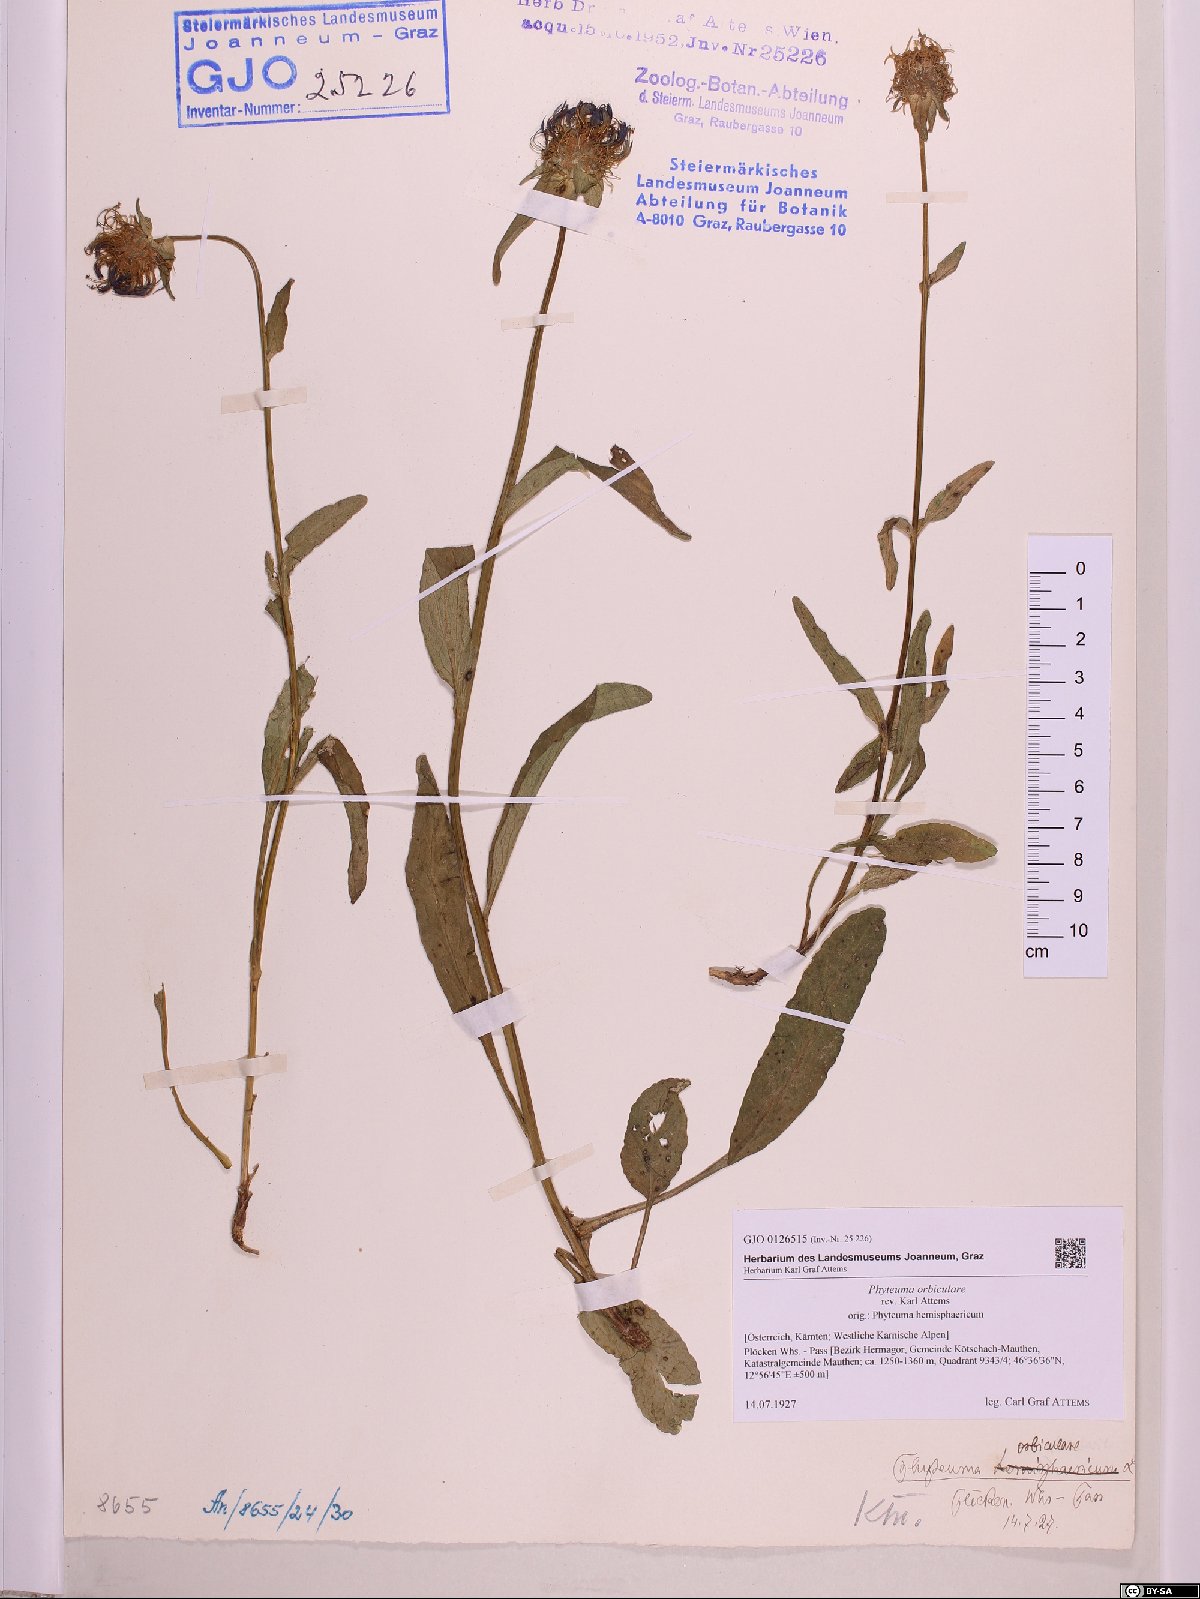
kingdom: Plantae
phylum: Tracheophyta
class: Magnoliopsida
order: Asterales
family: Campanulaceae
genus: Phyteuma
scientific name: Phyteuma orbiculare
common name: Round-headed rampion
